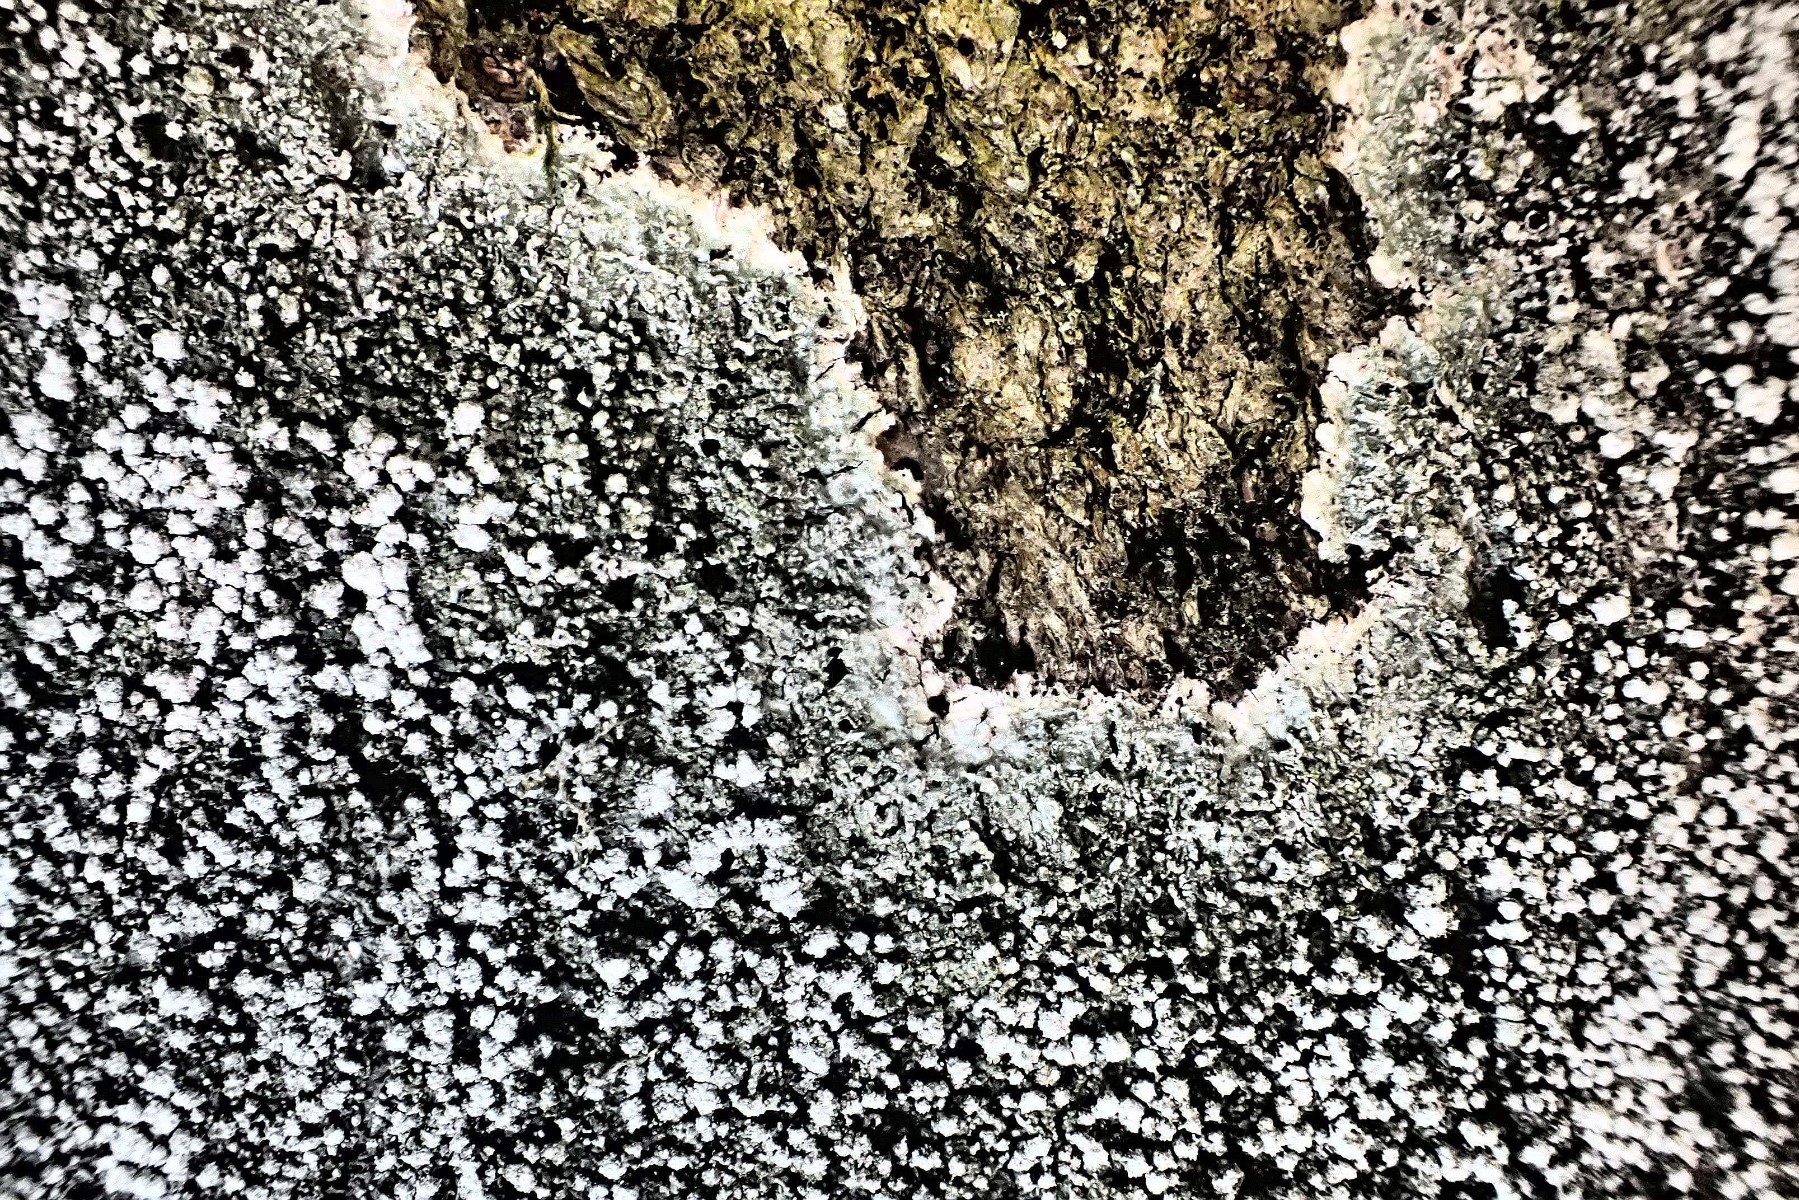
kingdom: Fungi
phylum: Ascomycota
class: Lecanoromycetes
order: Pertusariales
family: Pertusariaceae
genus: Lepra
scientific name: Lepra amara
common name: bitter prikvortelav
